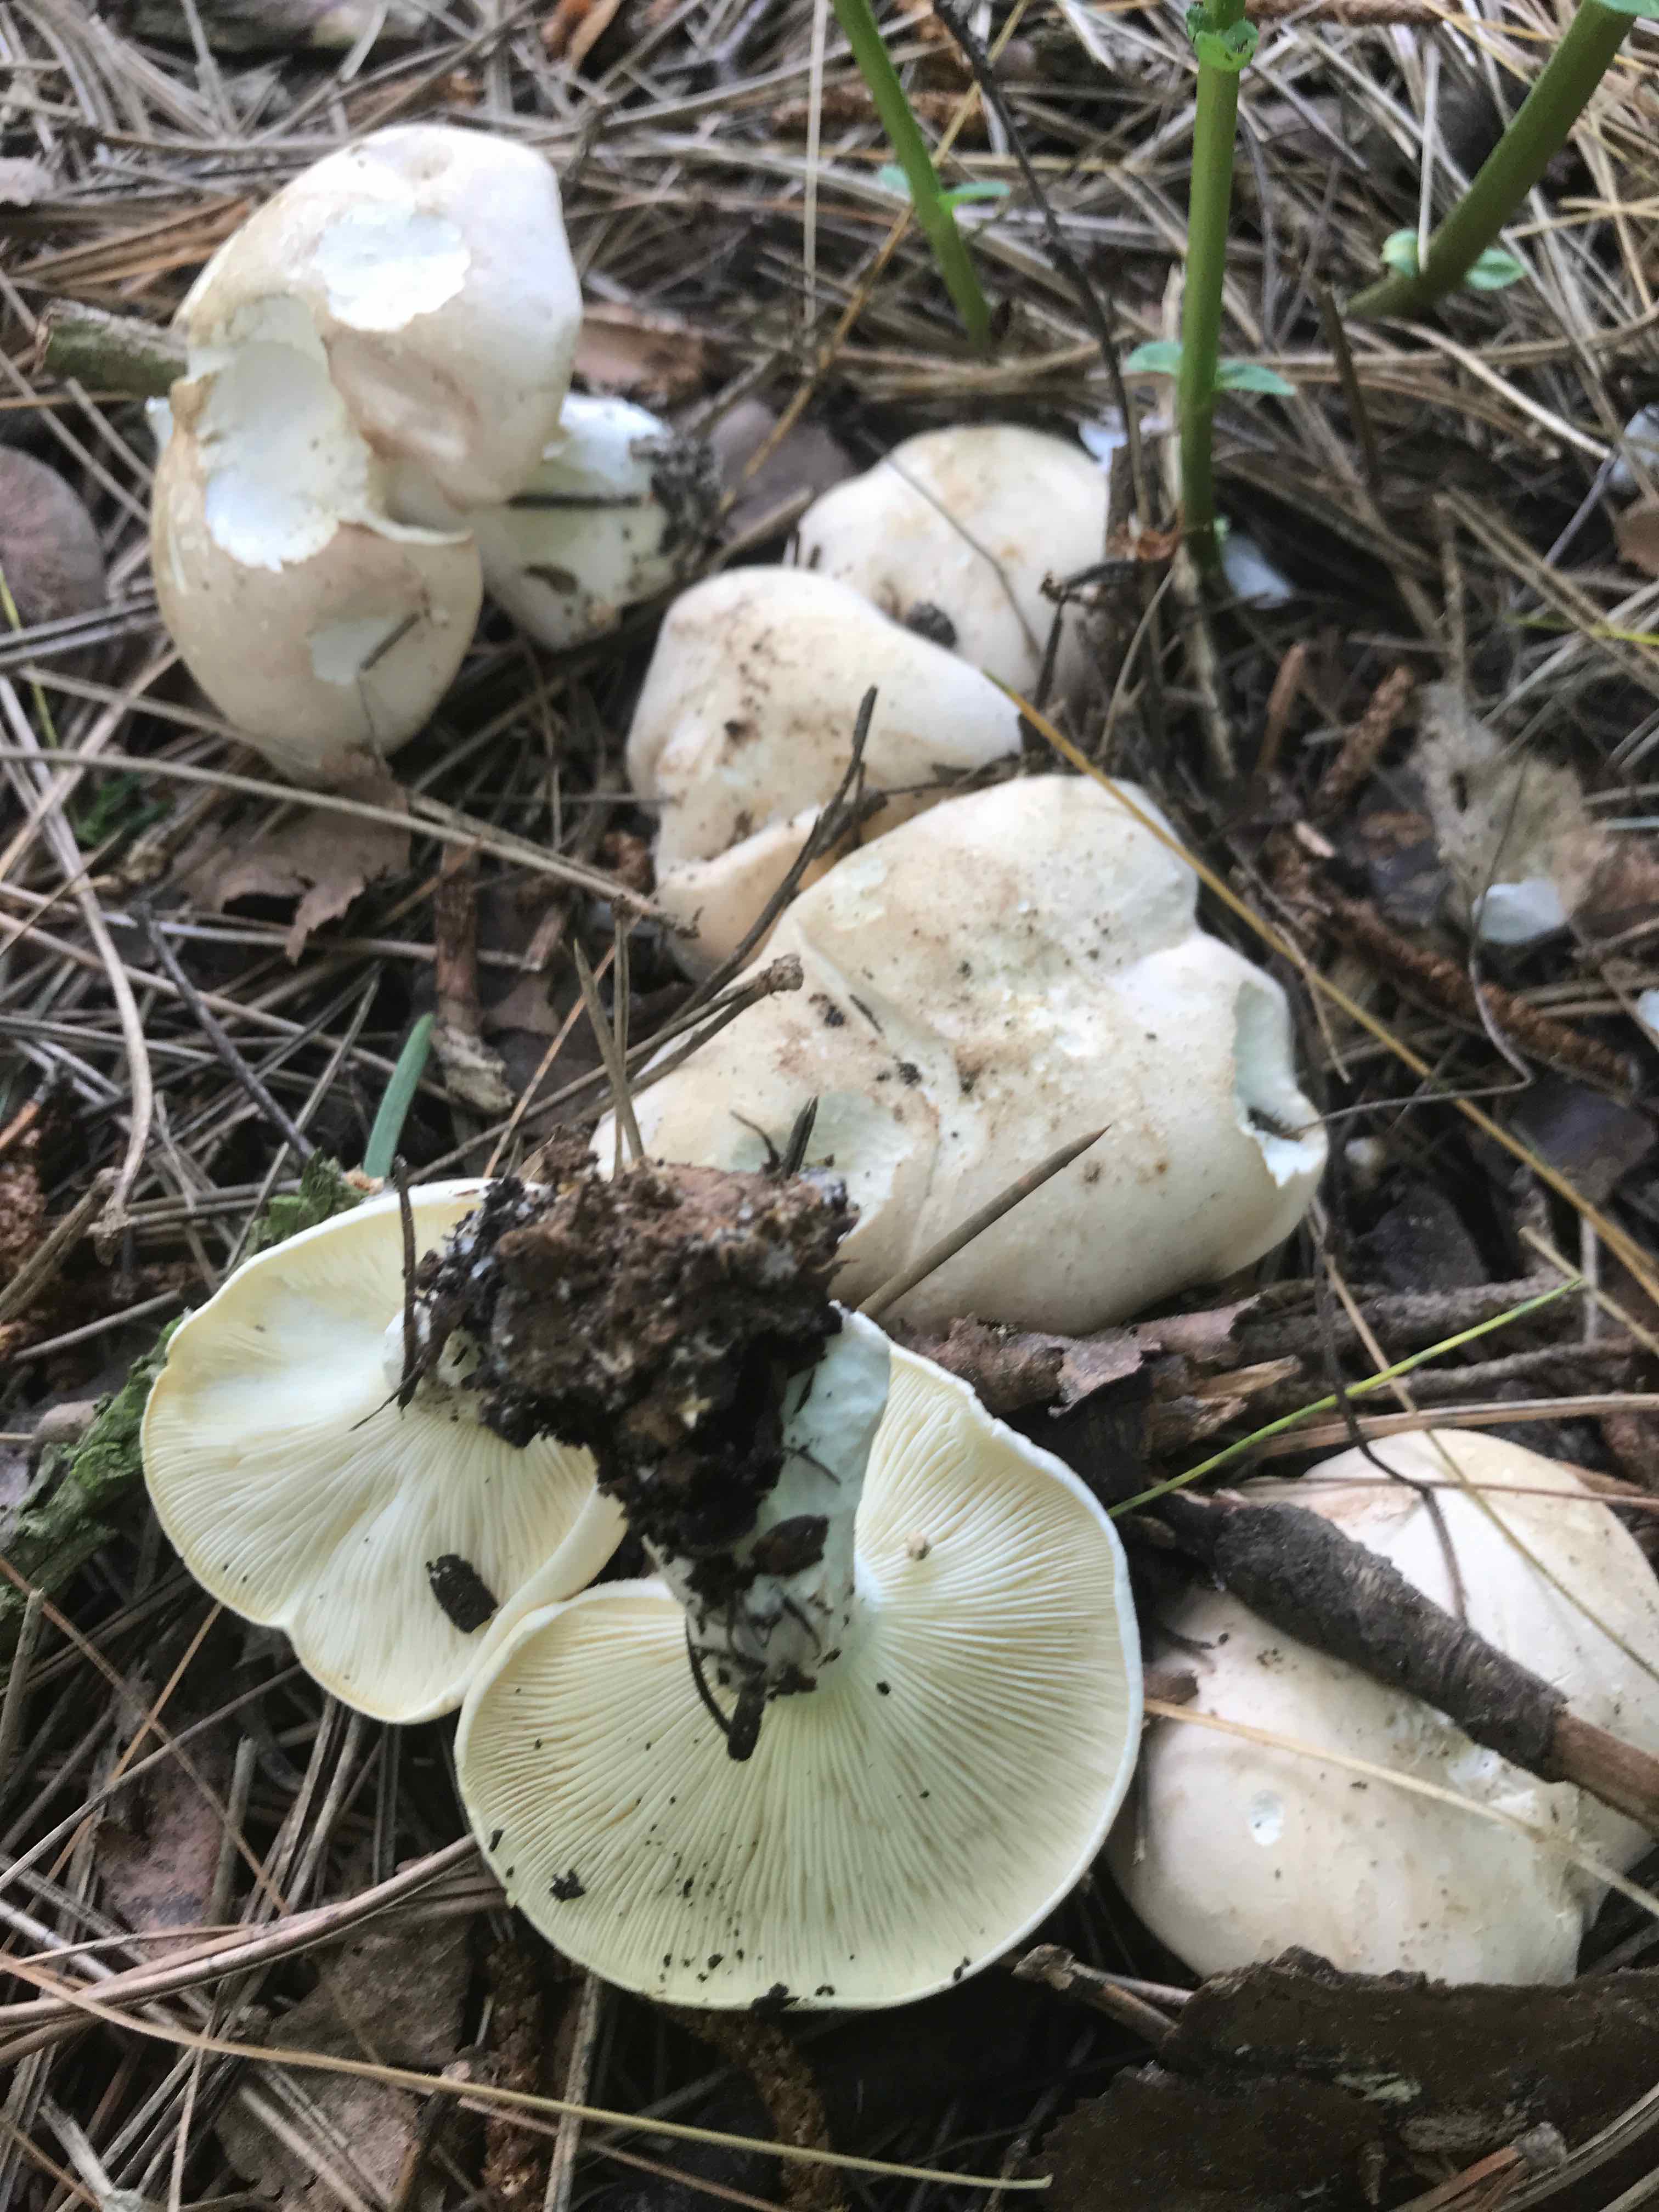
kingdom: Fungi
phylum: Basidiomycota
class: Agaricomycetes
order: Agaricales
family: Lyophyllaceae
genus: Calocybe
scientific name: Calocybe gambosa
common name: vårmusseron
